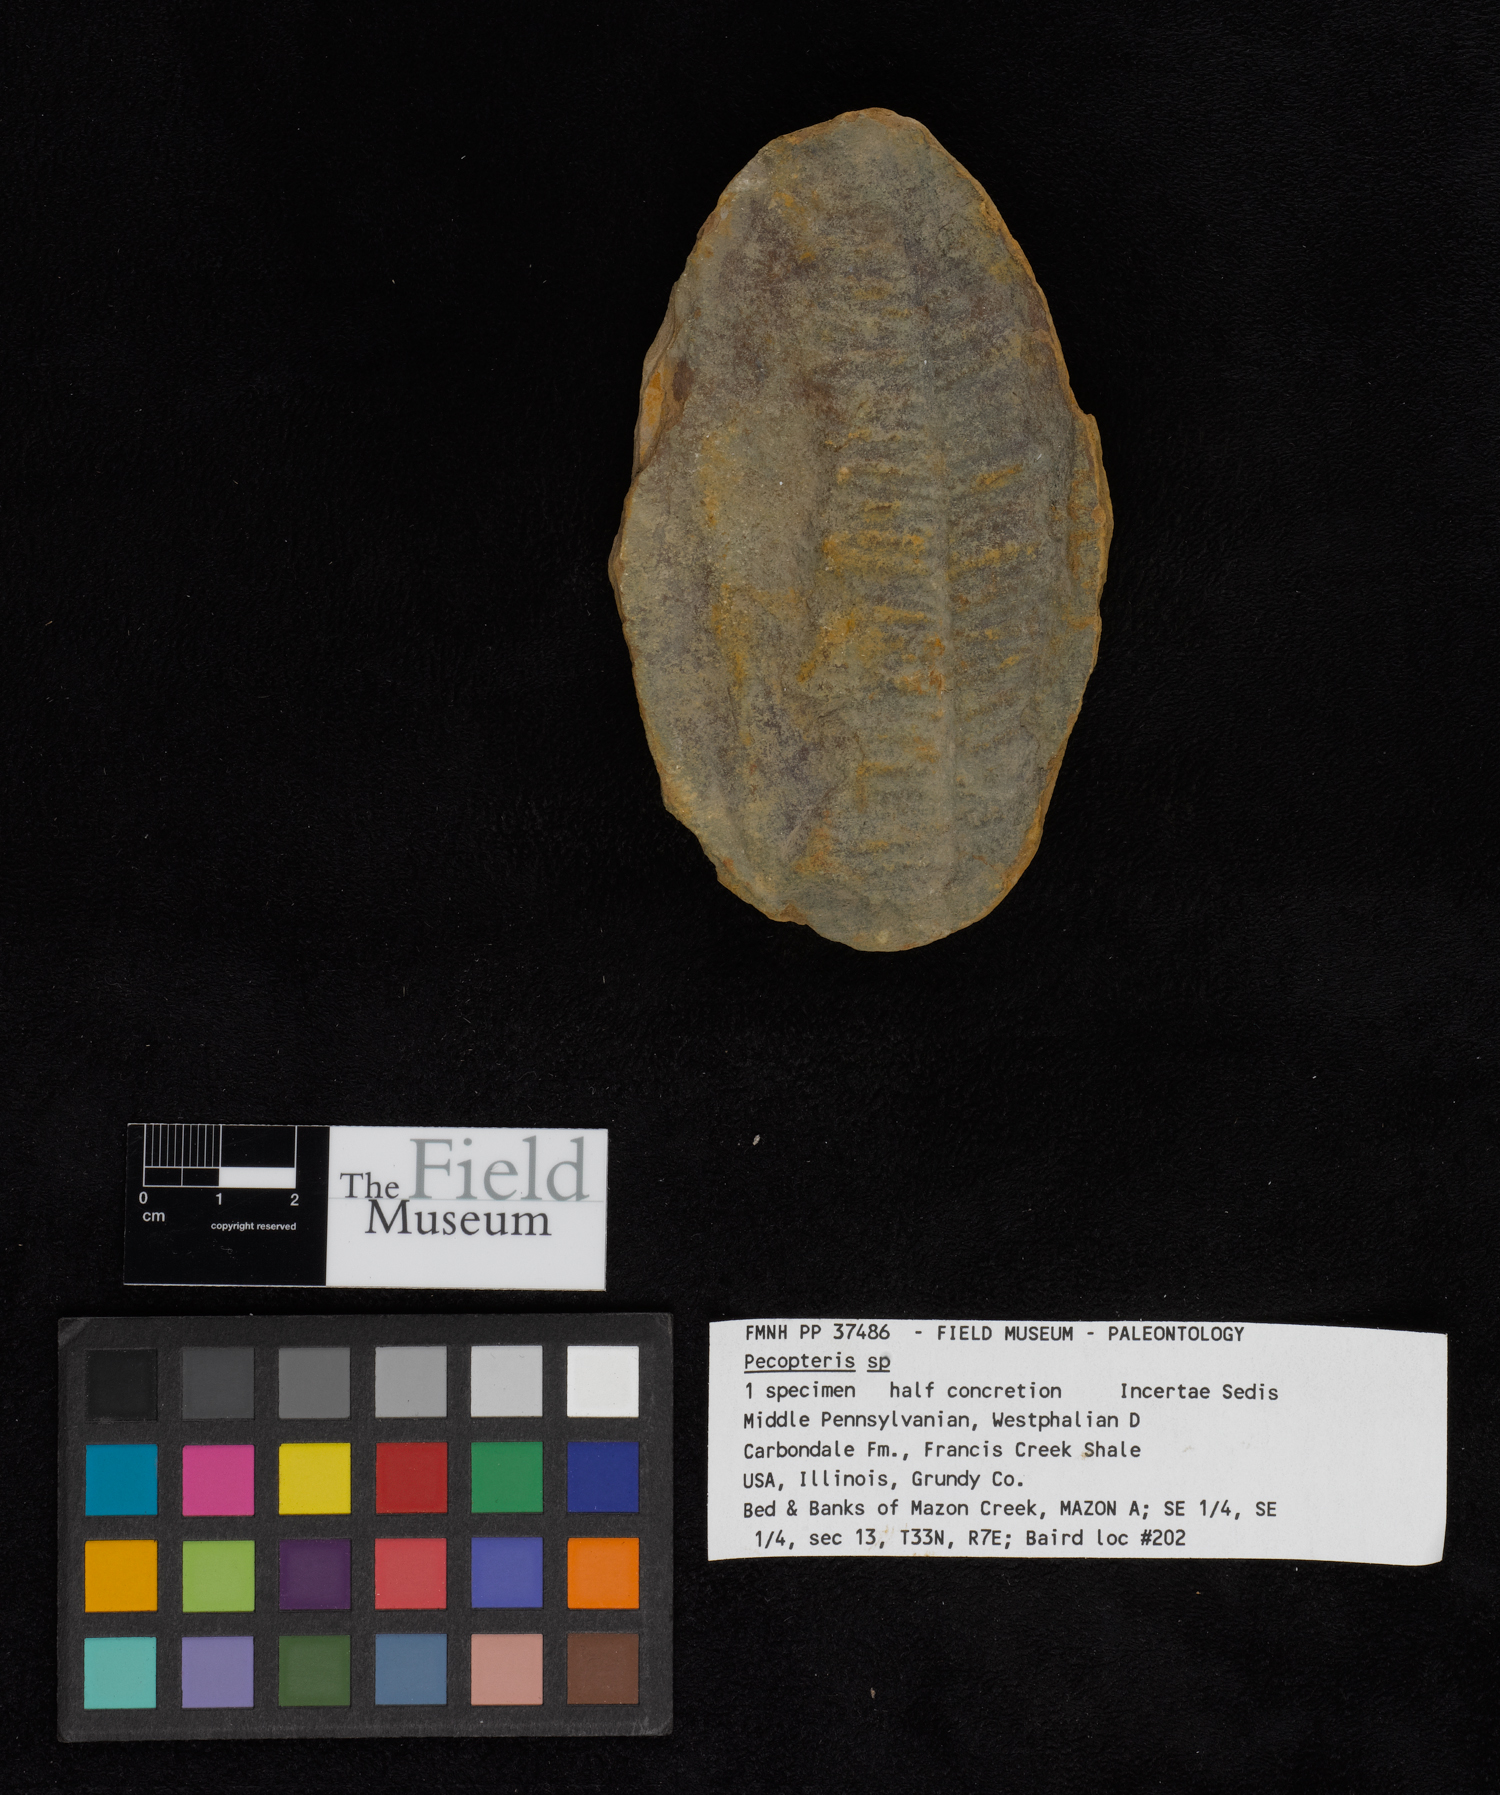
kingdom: Plantae
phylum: Tracheophyta
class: Polypodiopsida
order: Marattiales
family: Asterothecaceae
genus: Pecopteris
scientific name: Pecopteris
